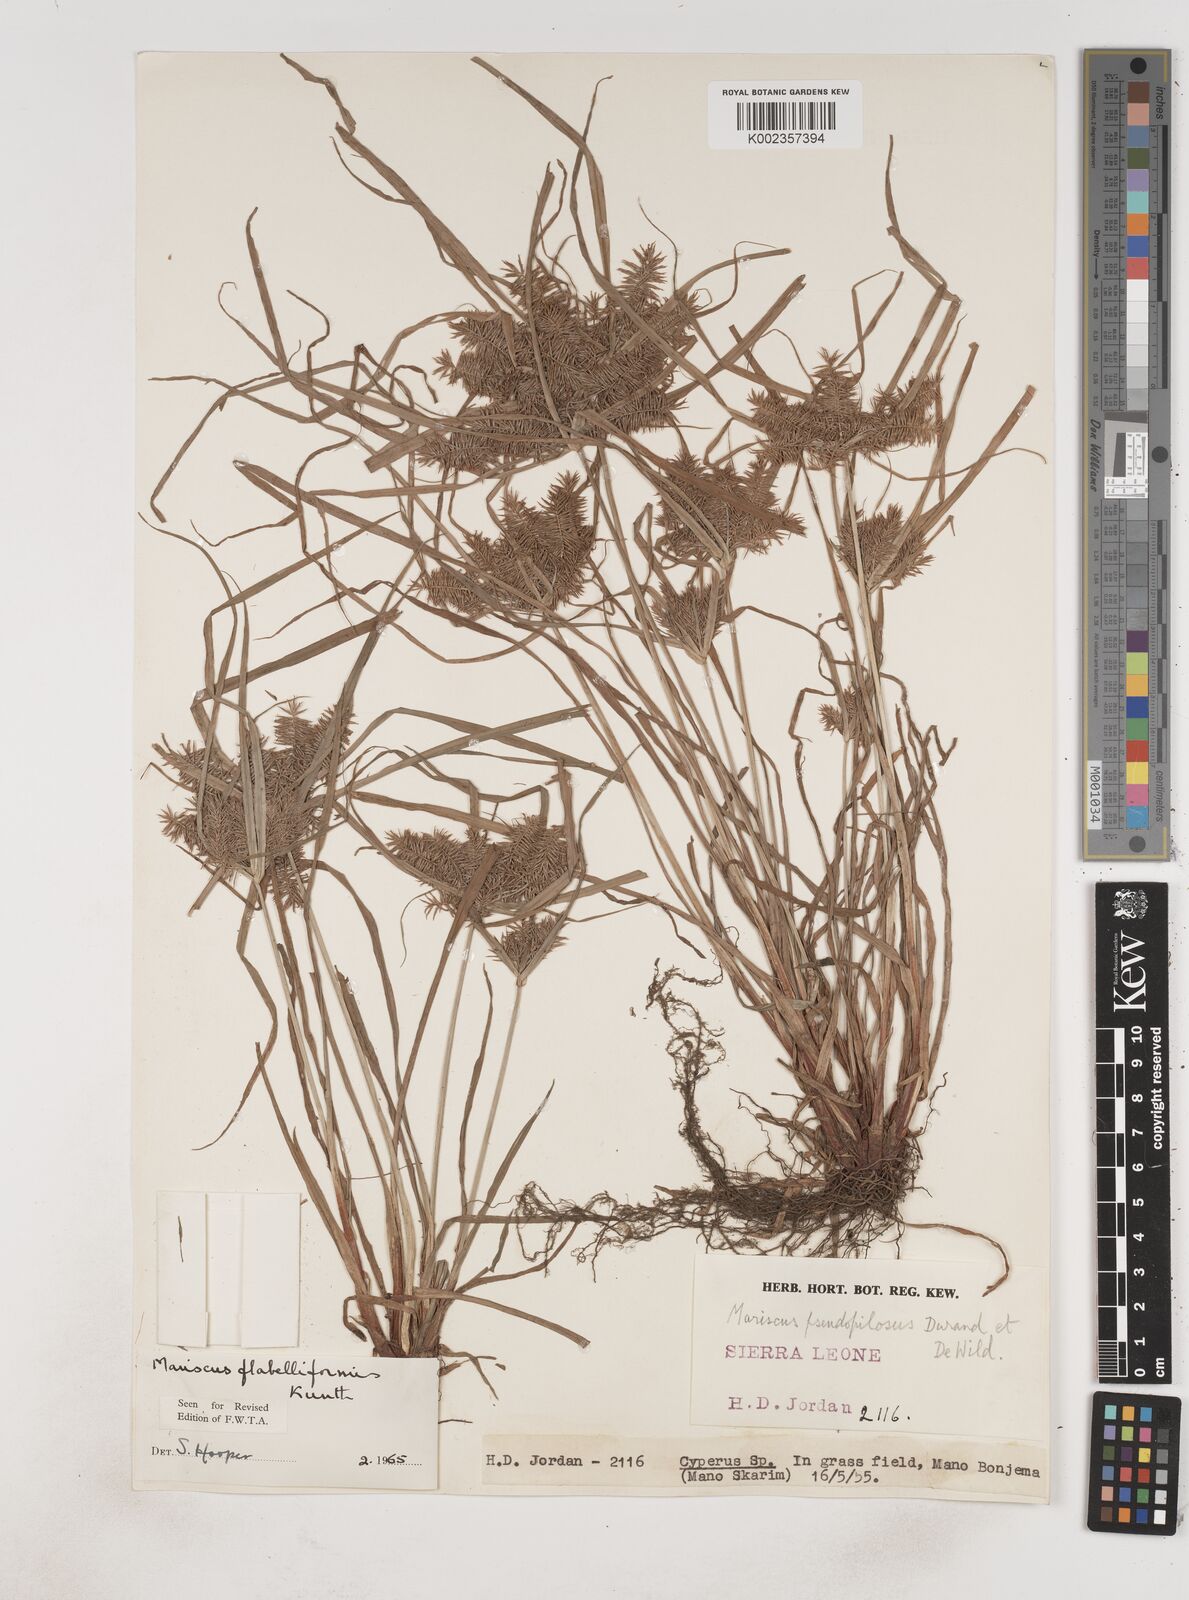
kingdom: Plantae
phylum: Tracheophyta
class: Liliopsida
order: Poales
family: Cyperaceae
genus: Cyperus
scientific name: Cyperus tenuis
